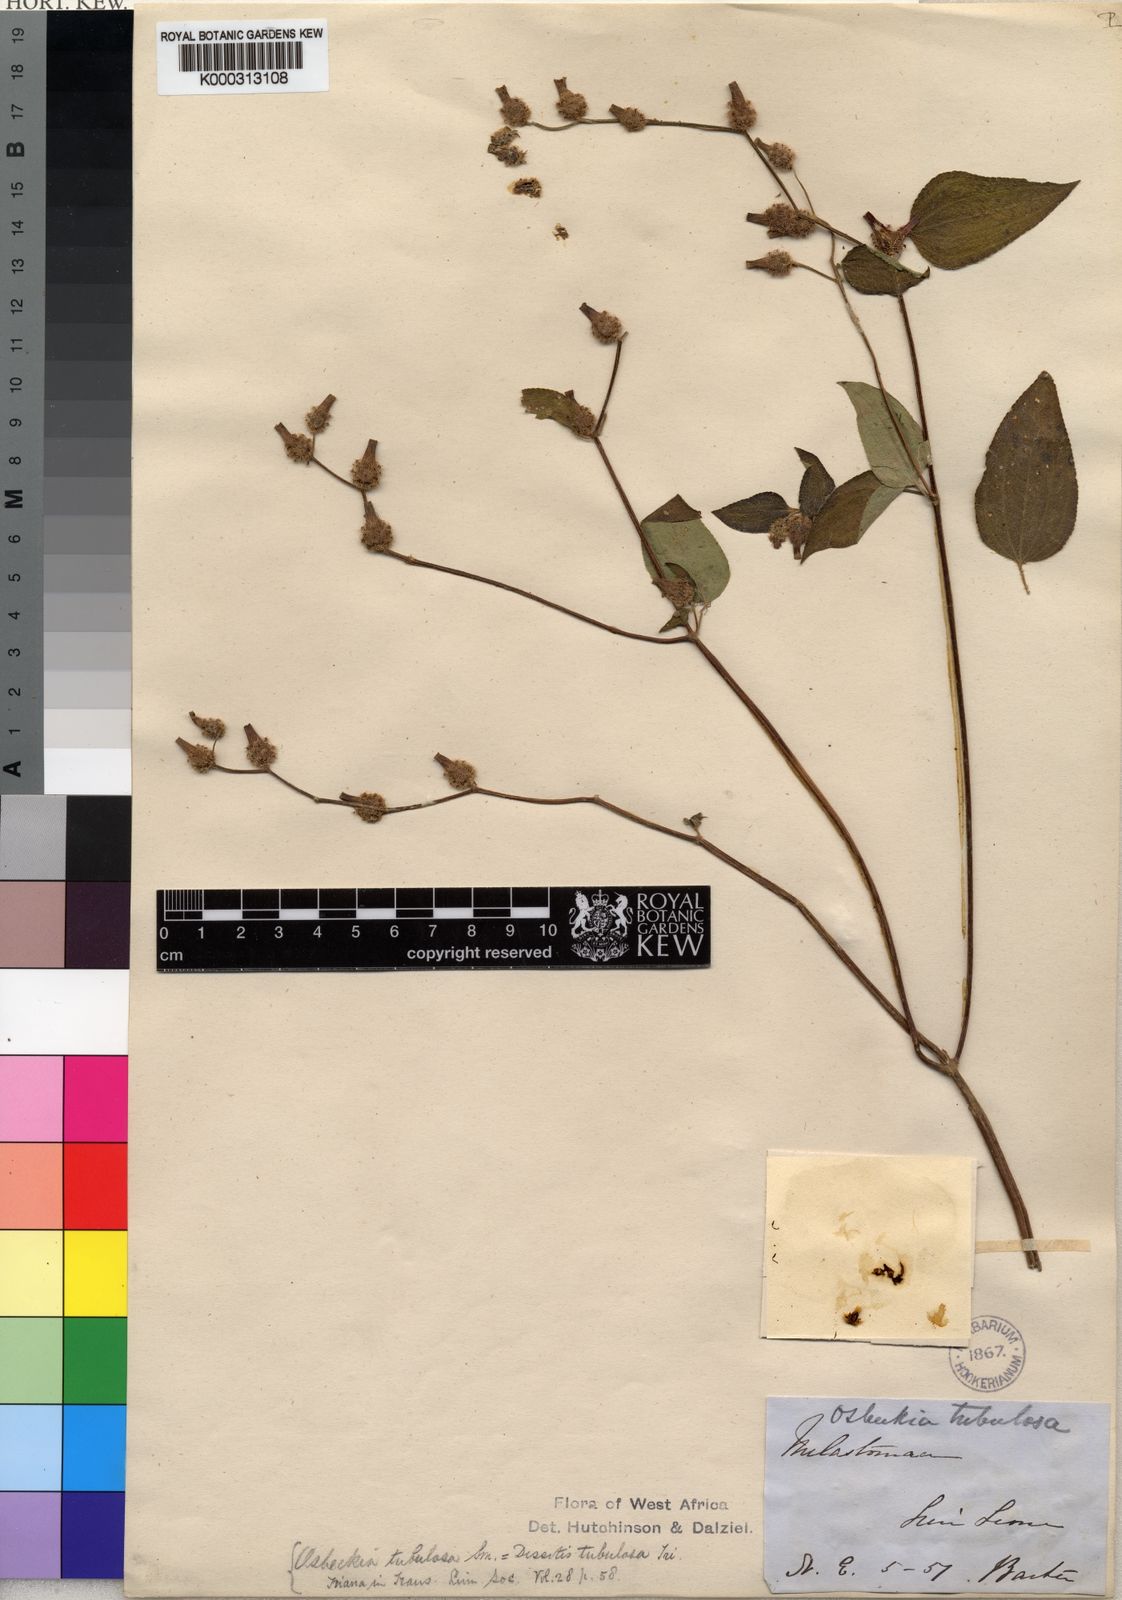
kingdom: Plantae
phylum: Tracheophyta
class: Magnoliopsida
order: Myrtales
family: Melastomataceae
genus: Derosiphia
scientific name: Derosiphia tubulosa
